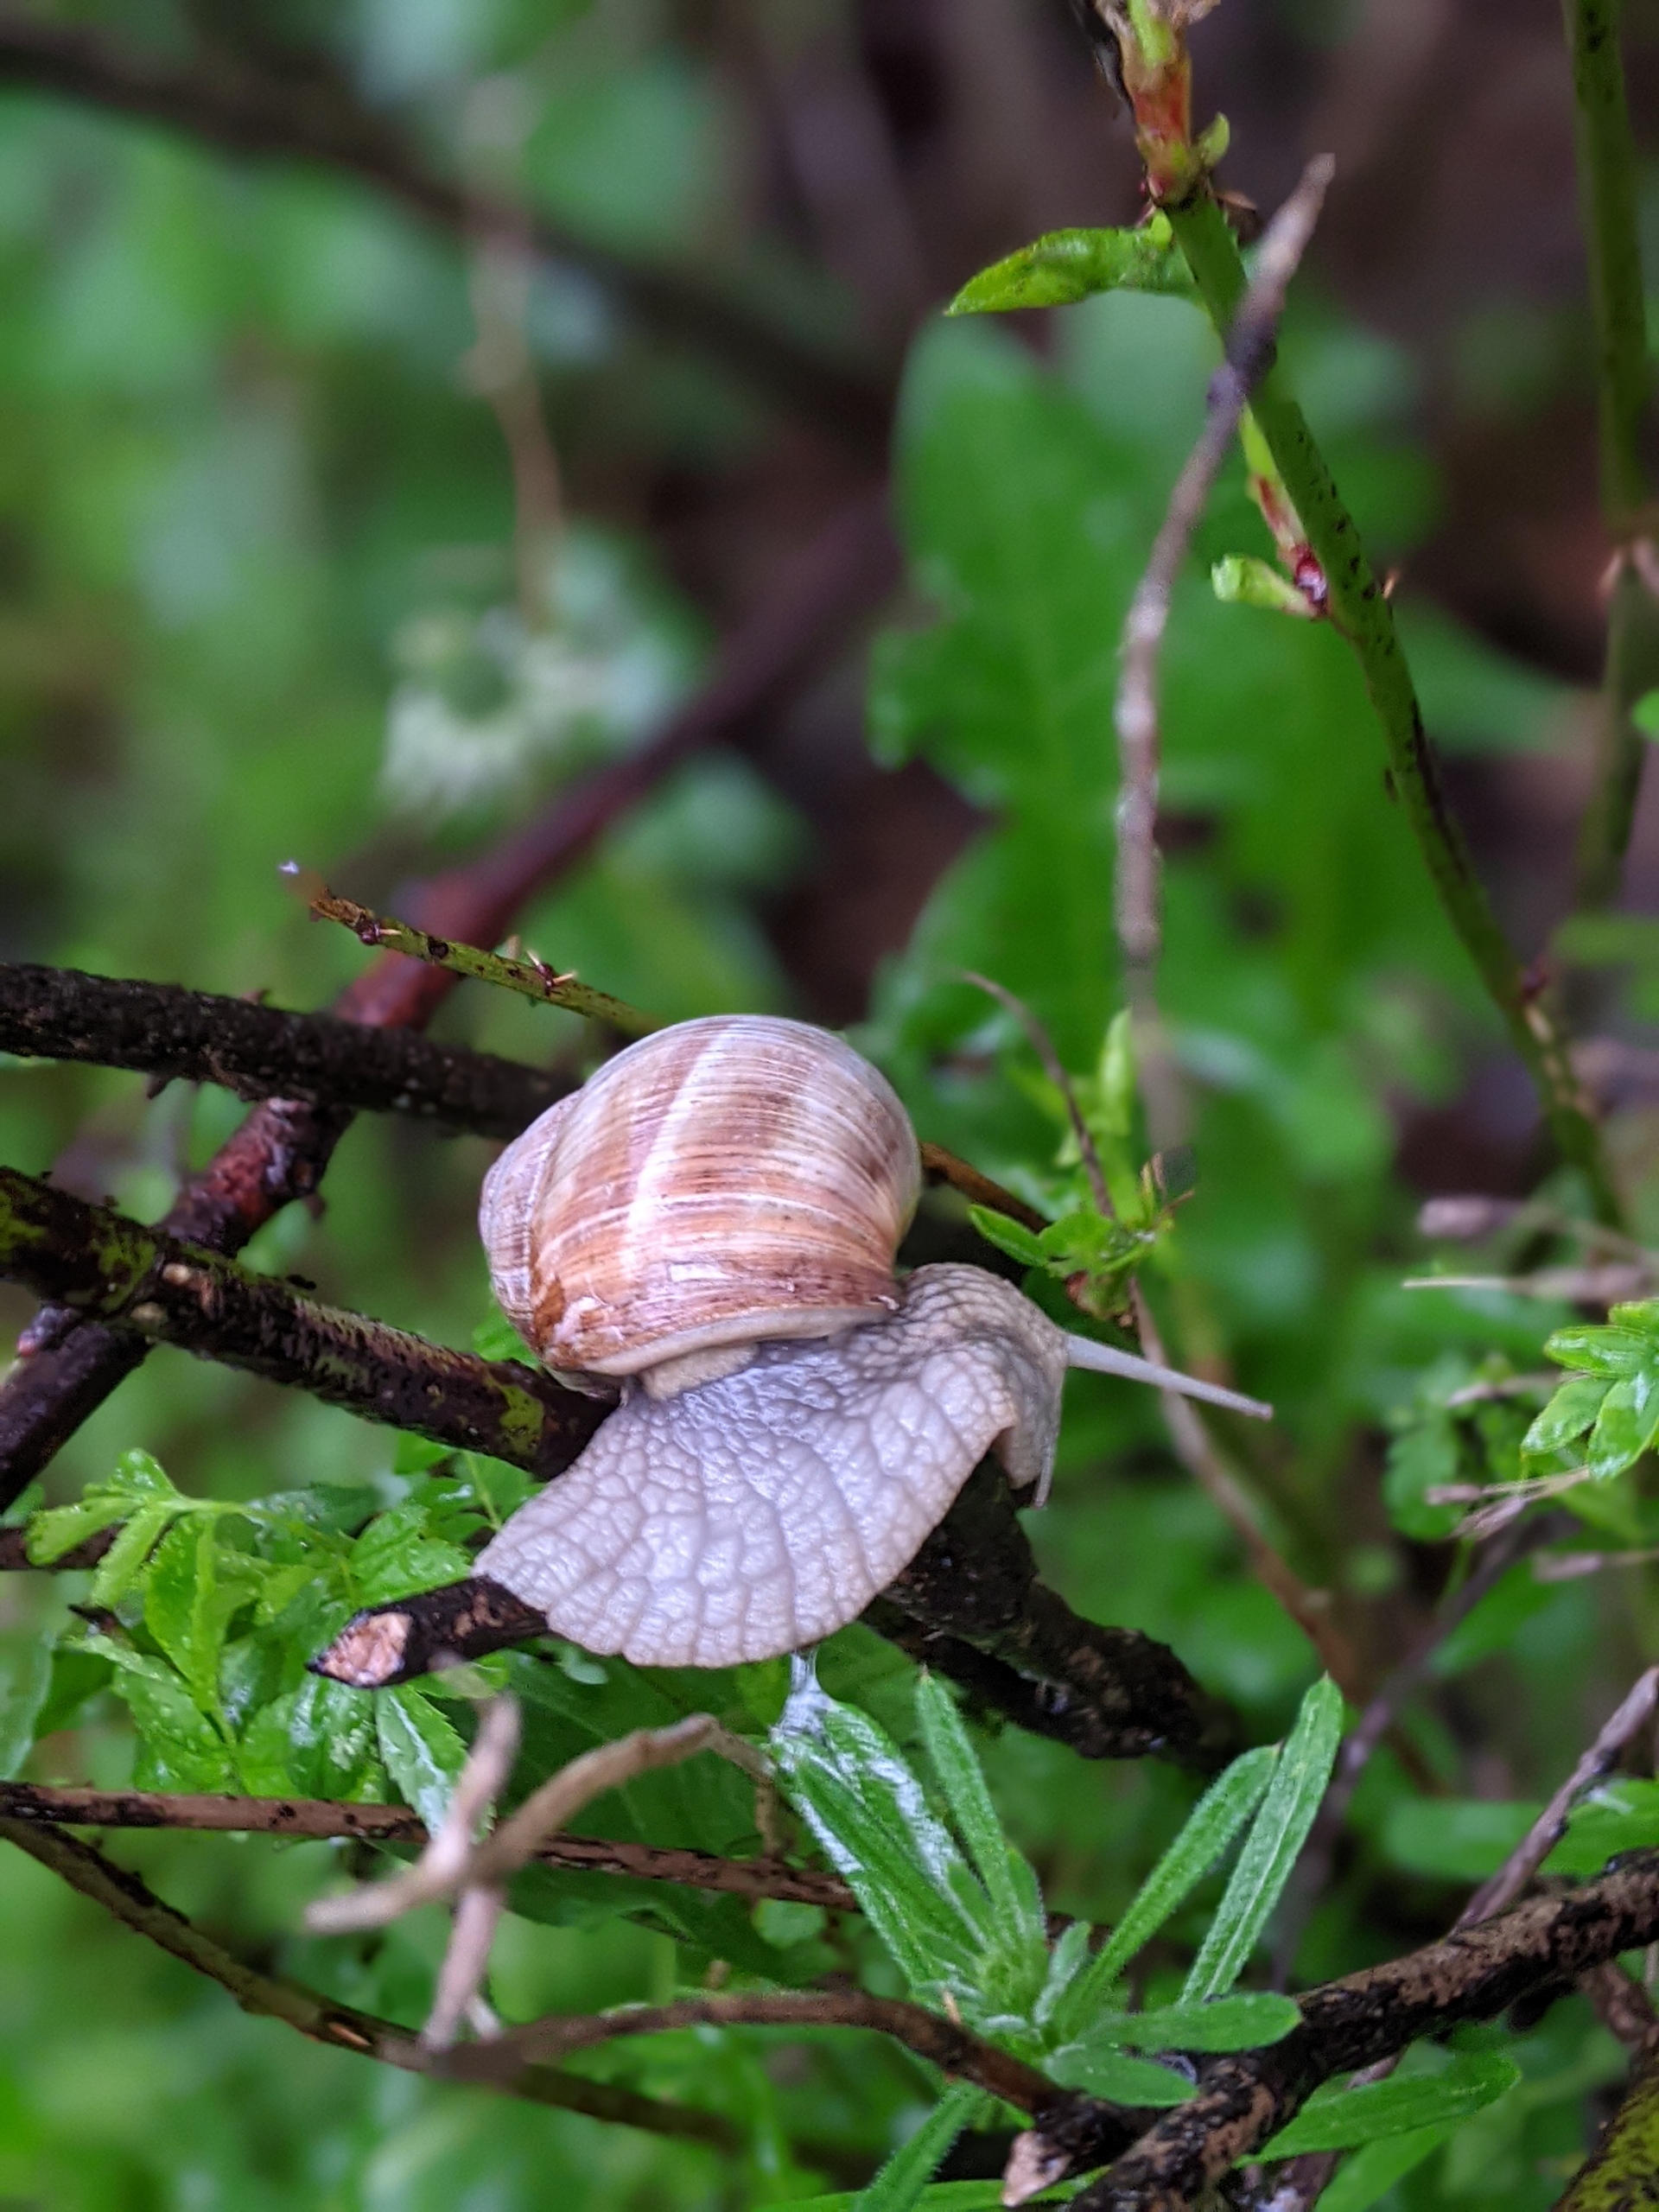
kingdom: Animalia
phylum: Mollusca
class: Gastropoda
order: Stylommatophora
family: Helicidae
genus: Helix
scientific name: Helix pomatia
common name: Vinbjergsnegl
